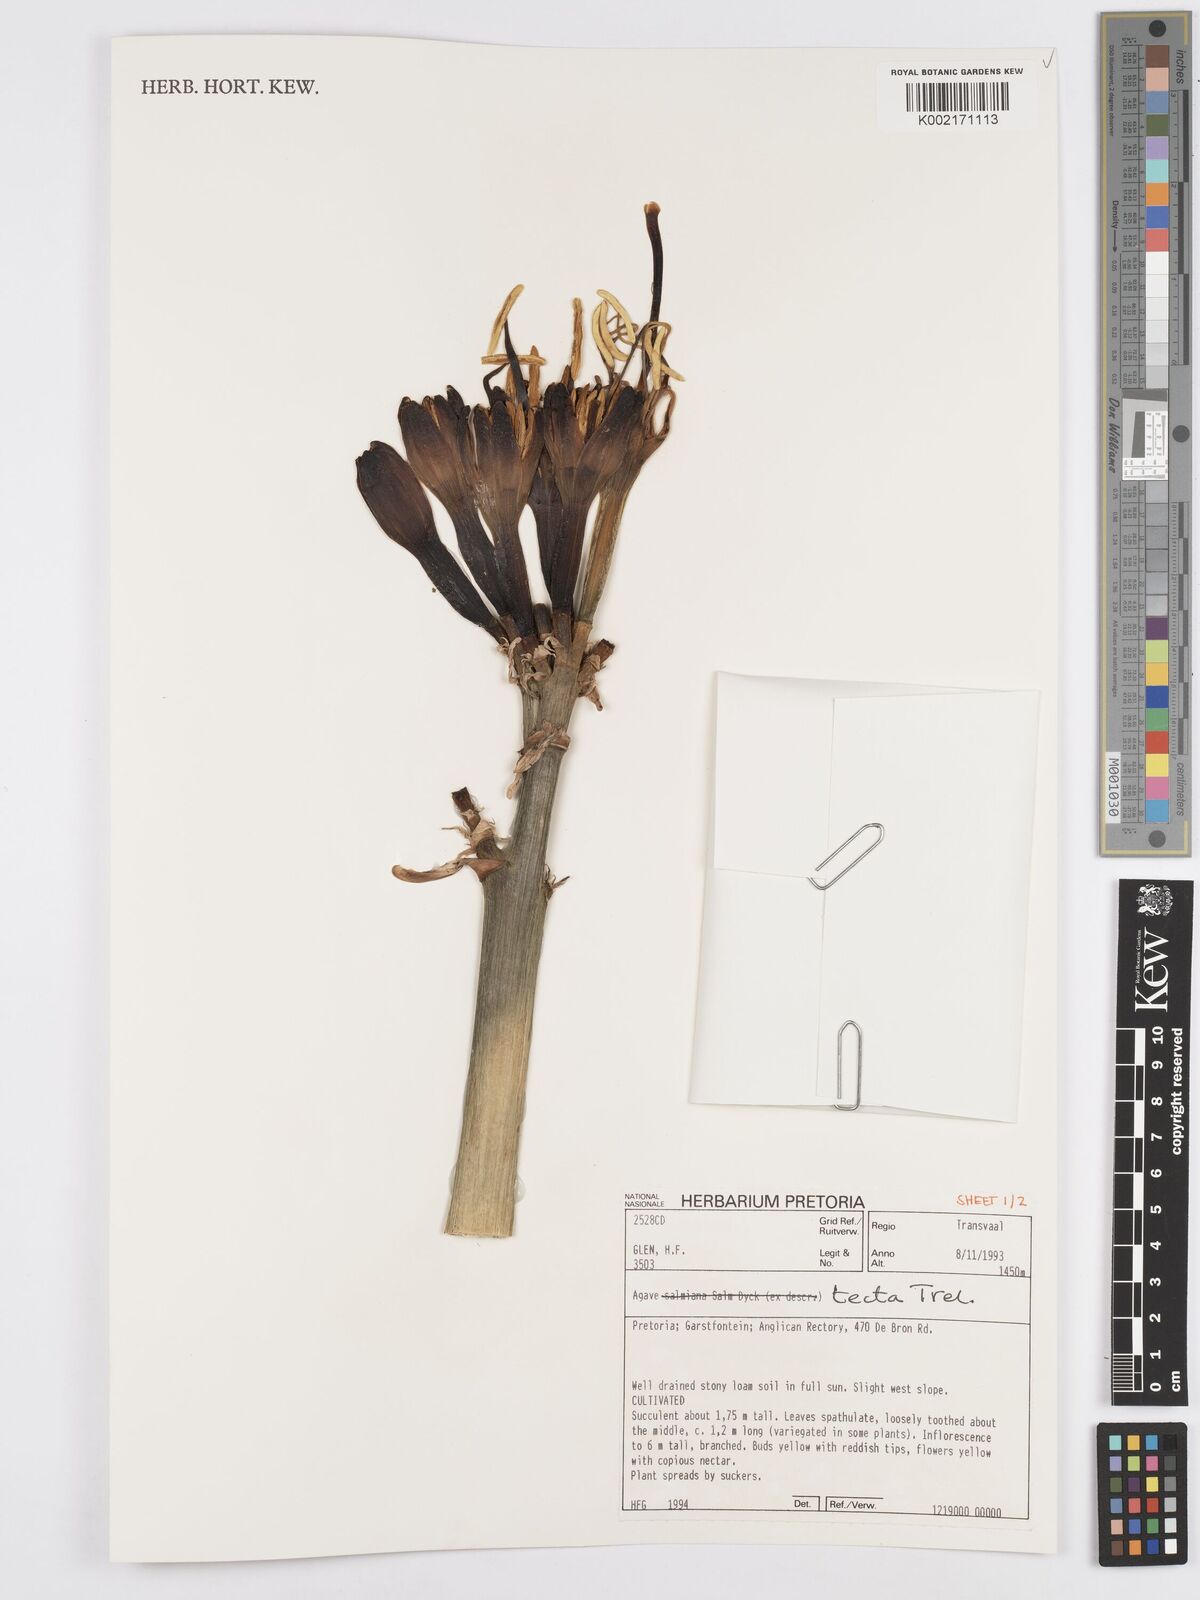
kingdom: Plantae
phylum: Tracheophyta
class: Liliopsida
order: Asparagales
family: Asparagaceae
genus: Agave
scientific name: Agave tecta
